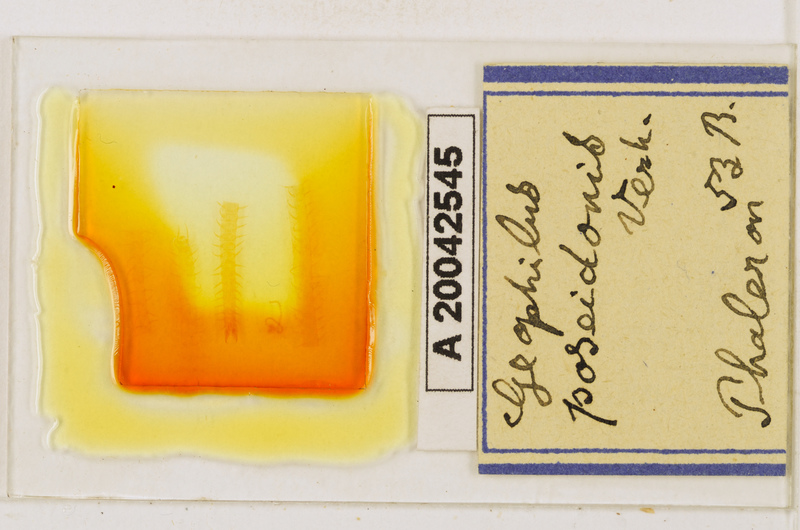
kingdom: Animalia
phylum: Arthropoda
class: Chilopoda
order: Geophilomorpha
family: Geophilidae
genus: Tuoba
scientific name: Tuoba poseidonis
